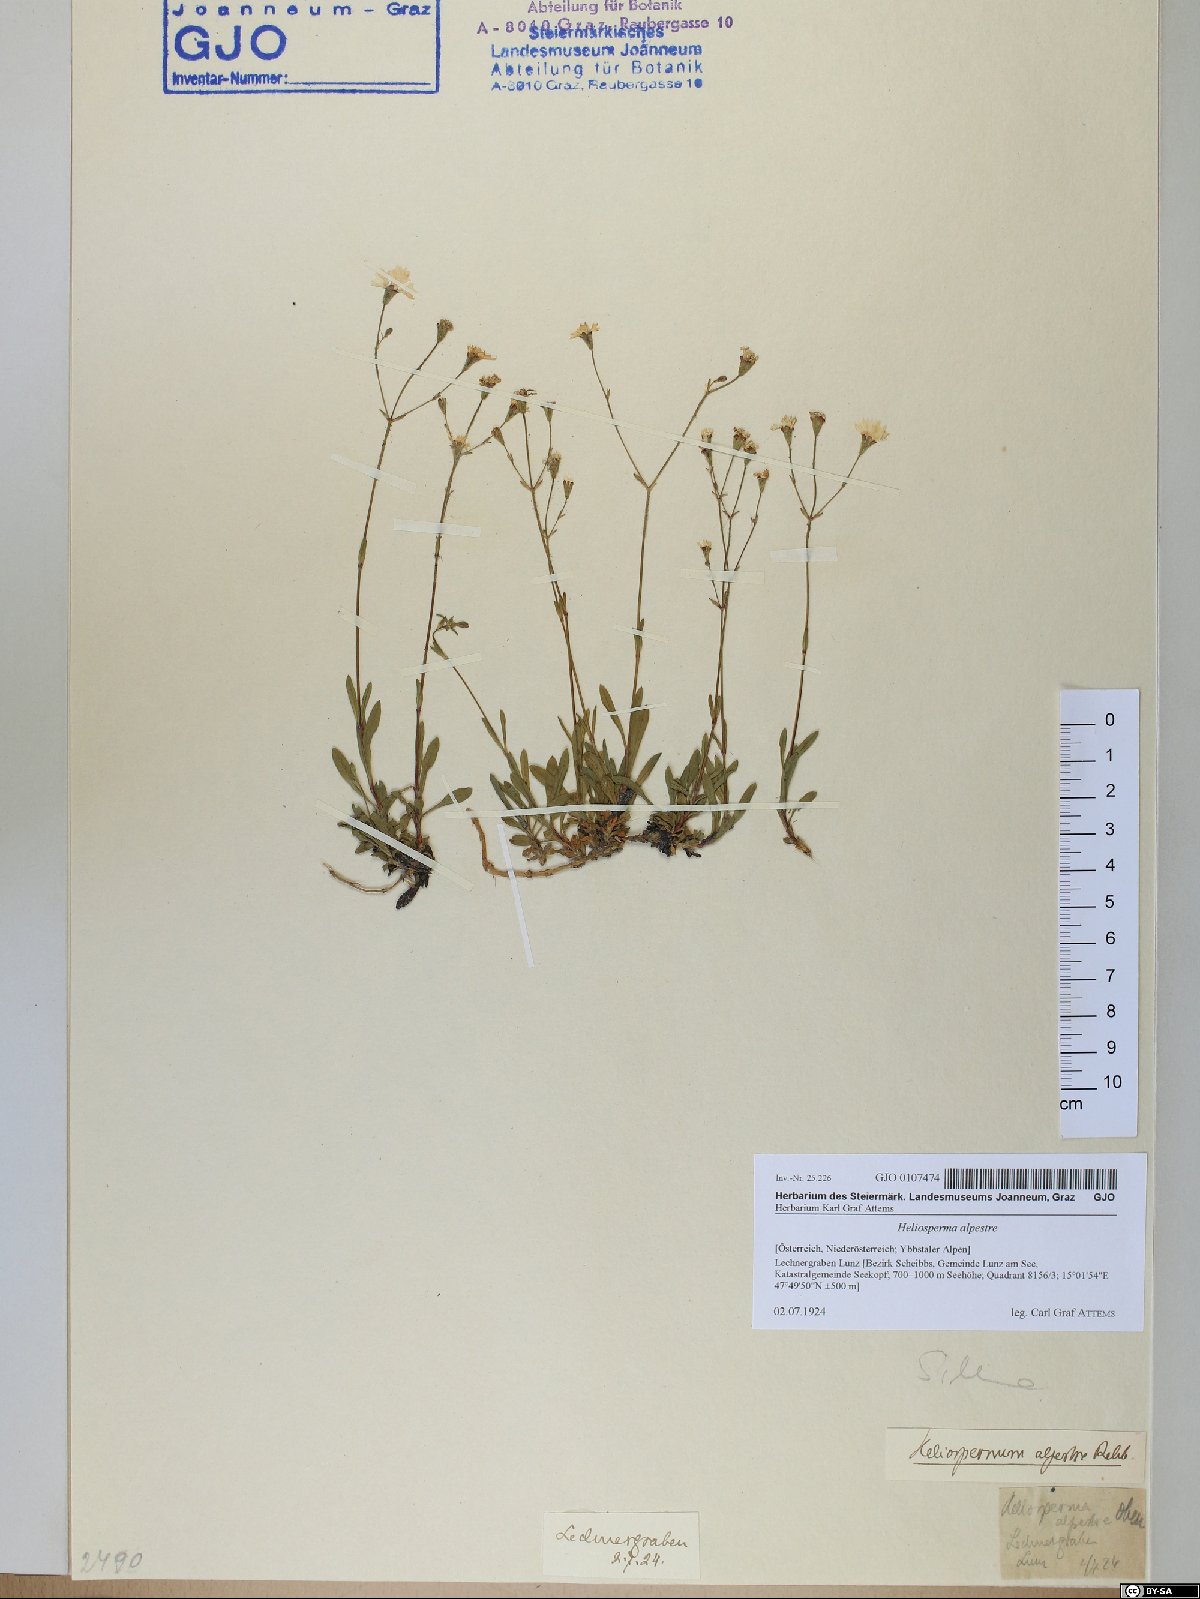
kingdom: Plantae
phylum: Tracheophyta
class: Magnoliopsida
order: Caryophyllales
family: Caryophyllaceae
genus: Heliosperma
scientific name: Heliosperma alpestre
